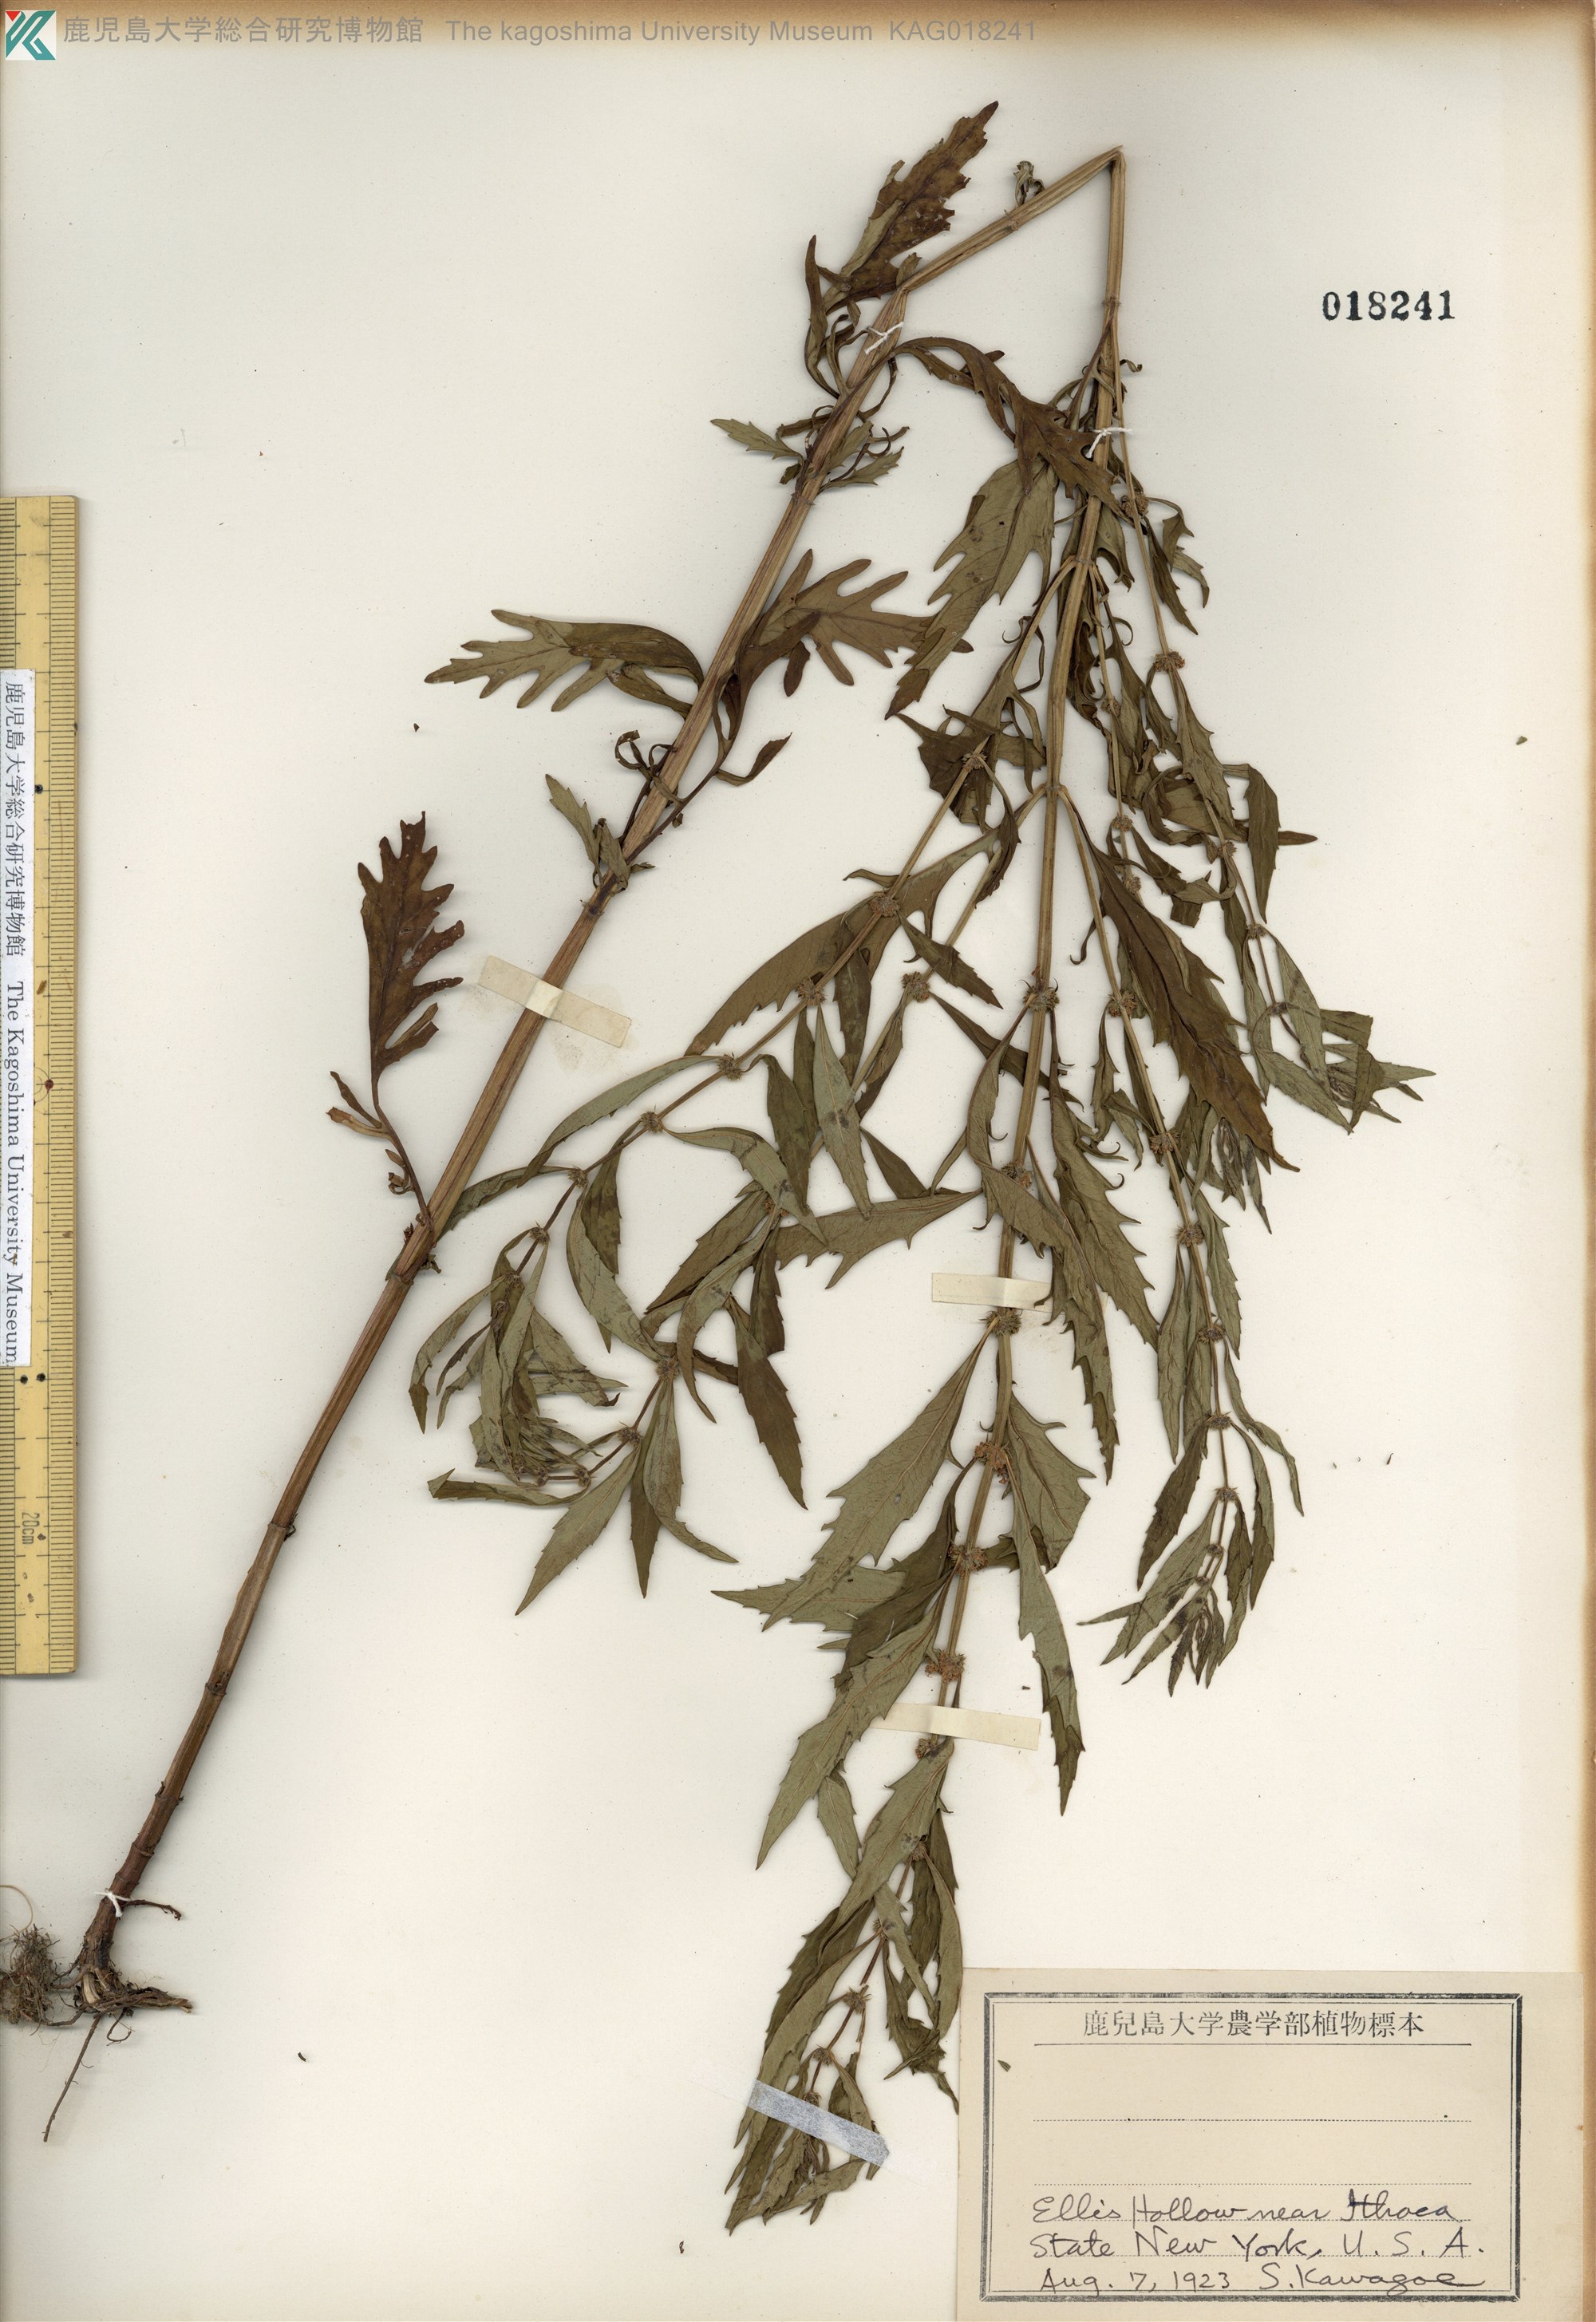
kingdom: Plantae
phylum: Tracheophyta
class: Magnoliopsida
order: Lamiales
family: Lamiaceae
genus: Lycopus
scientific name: Lycopus americanus
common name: American bugleweed
